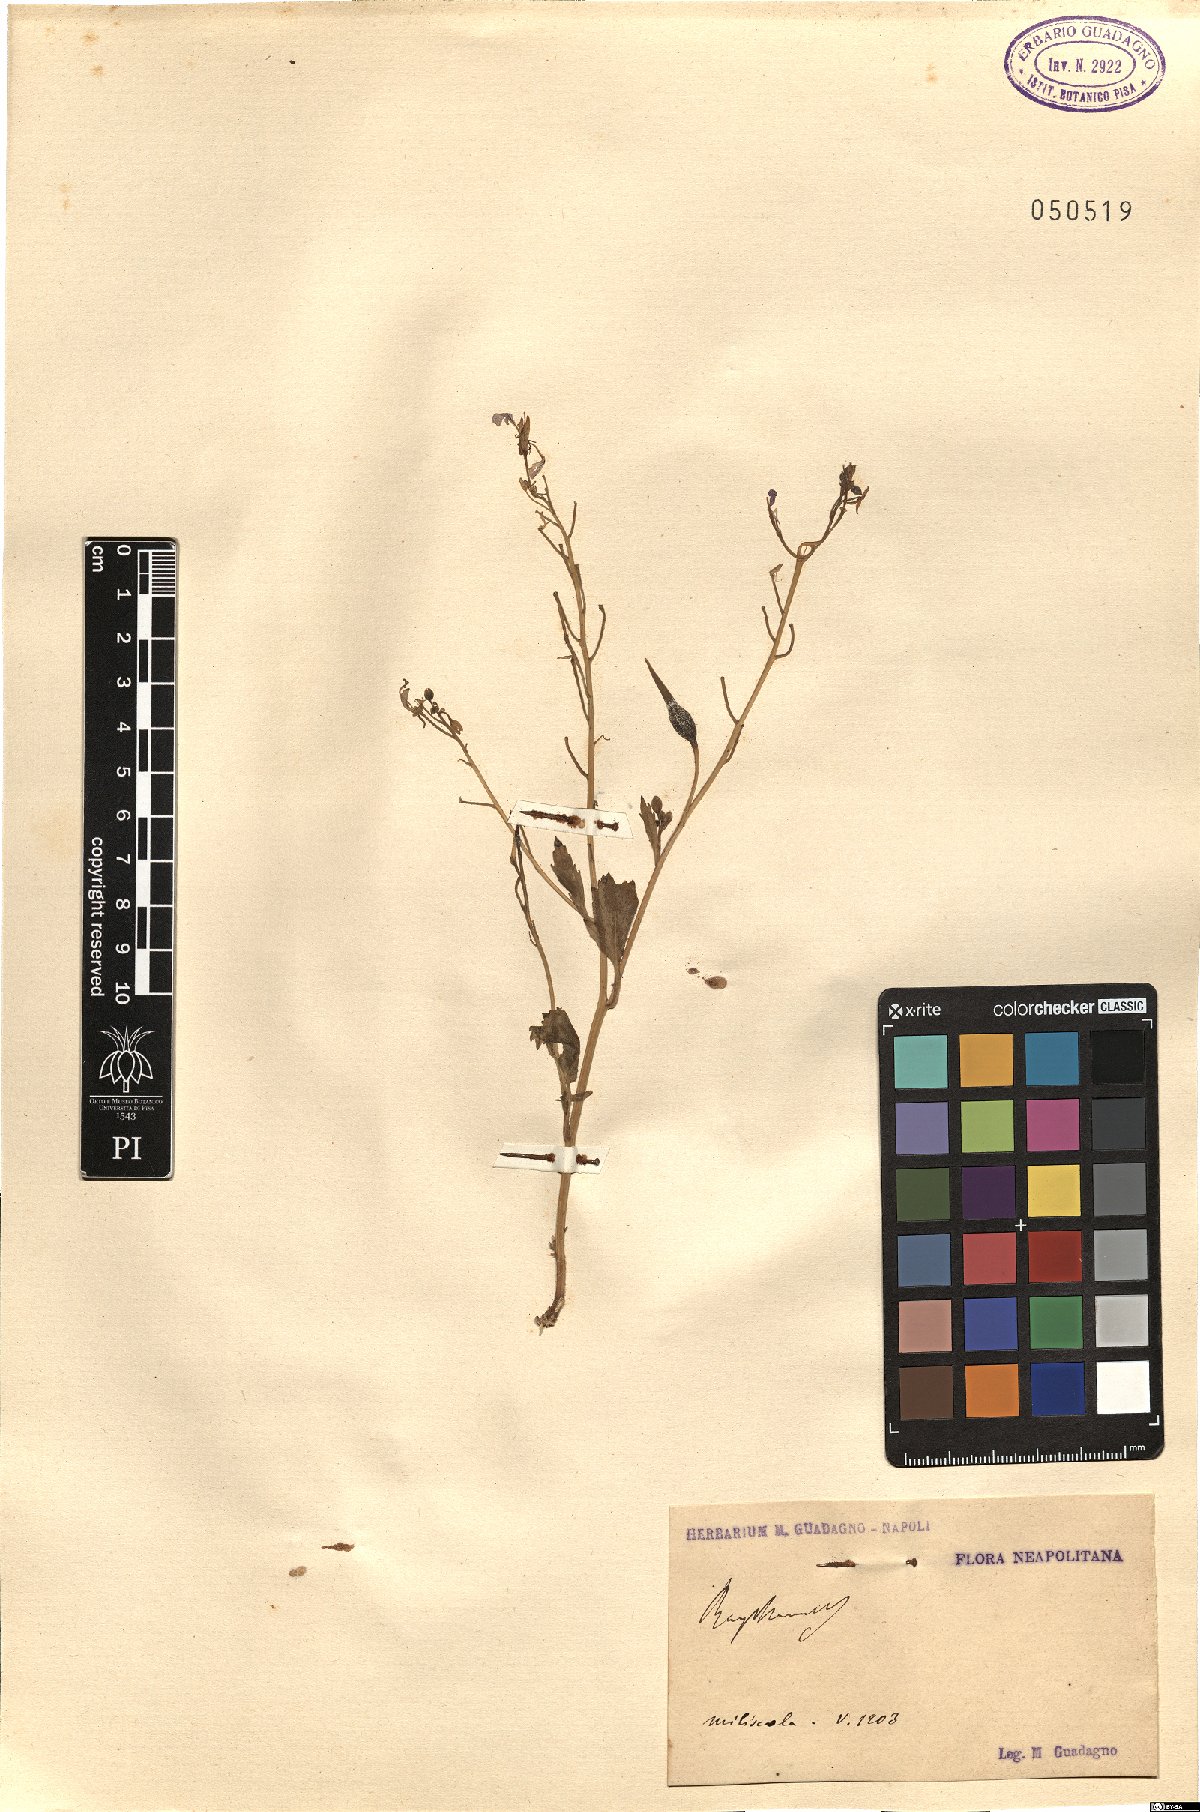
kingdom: Plantae
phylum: Tracheophyta
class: Magnoliopsida
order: Brassicales
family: Brassicaceae
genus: Raphanus
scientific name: Raphanus
